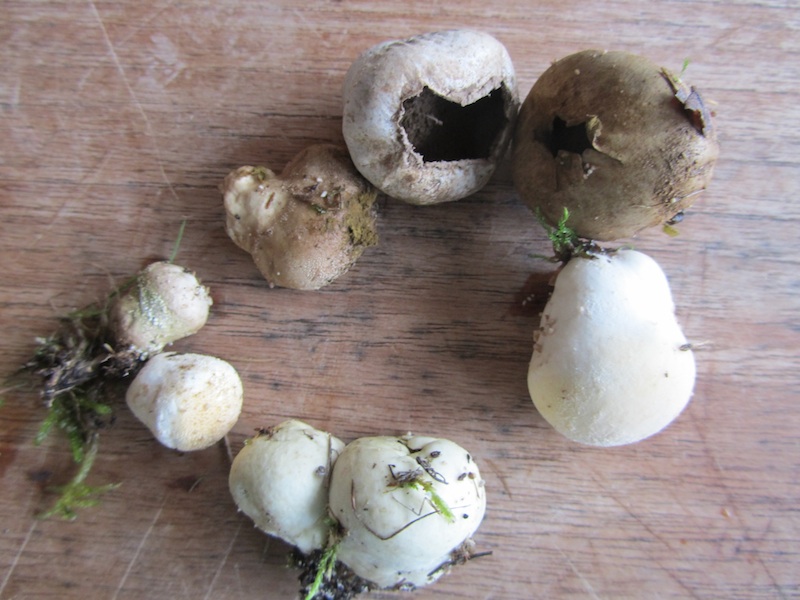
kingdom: Fungi
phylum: Basidiomycota
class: Agaricomycetes
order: Agaricales
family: Lycoperdaceae
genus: Lycoperdon
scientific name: Lycoperdon pratense
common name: flad støvbold
